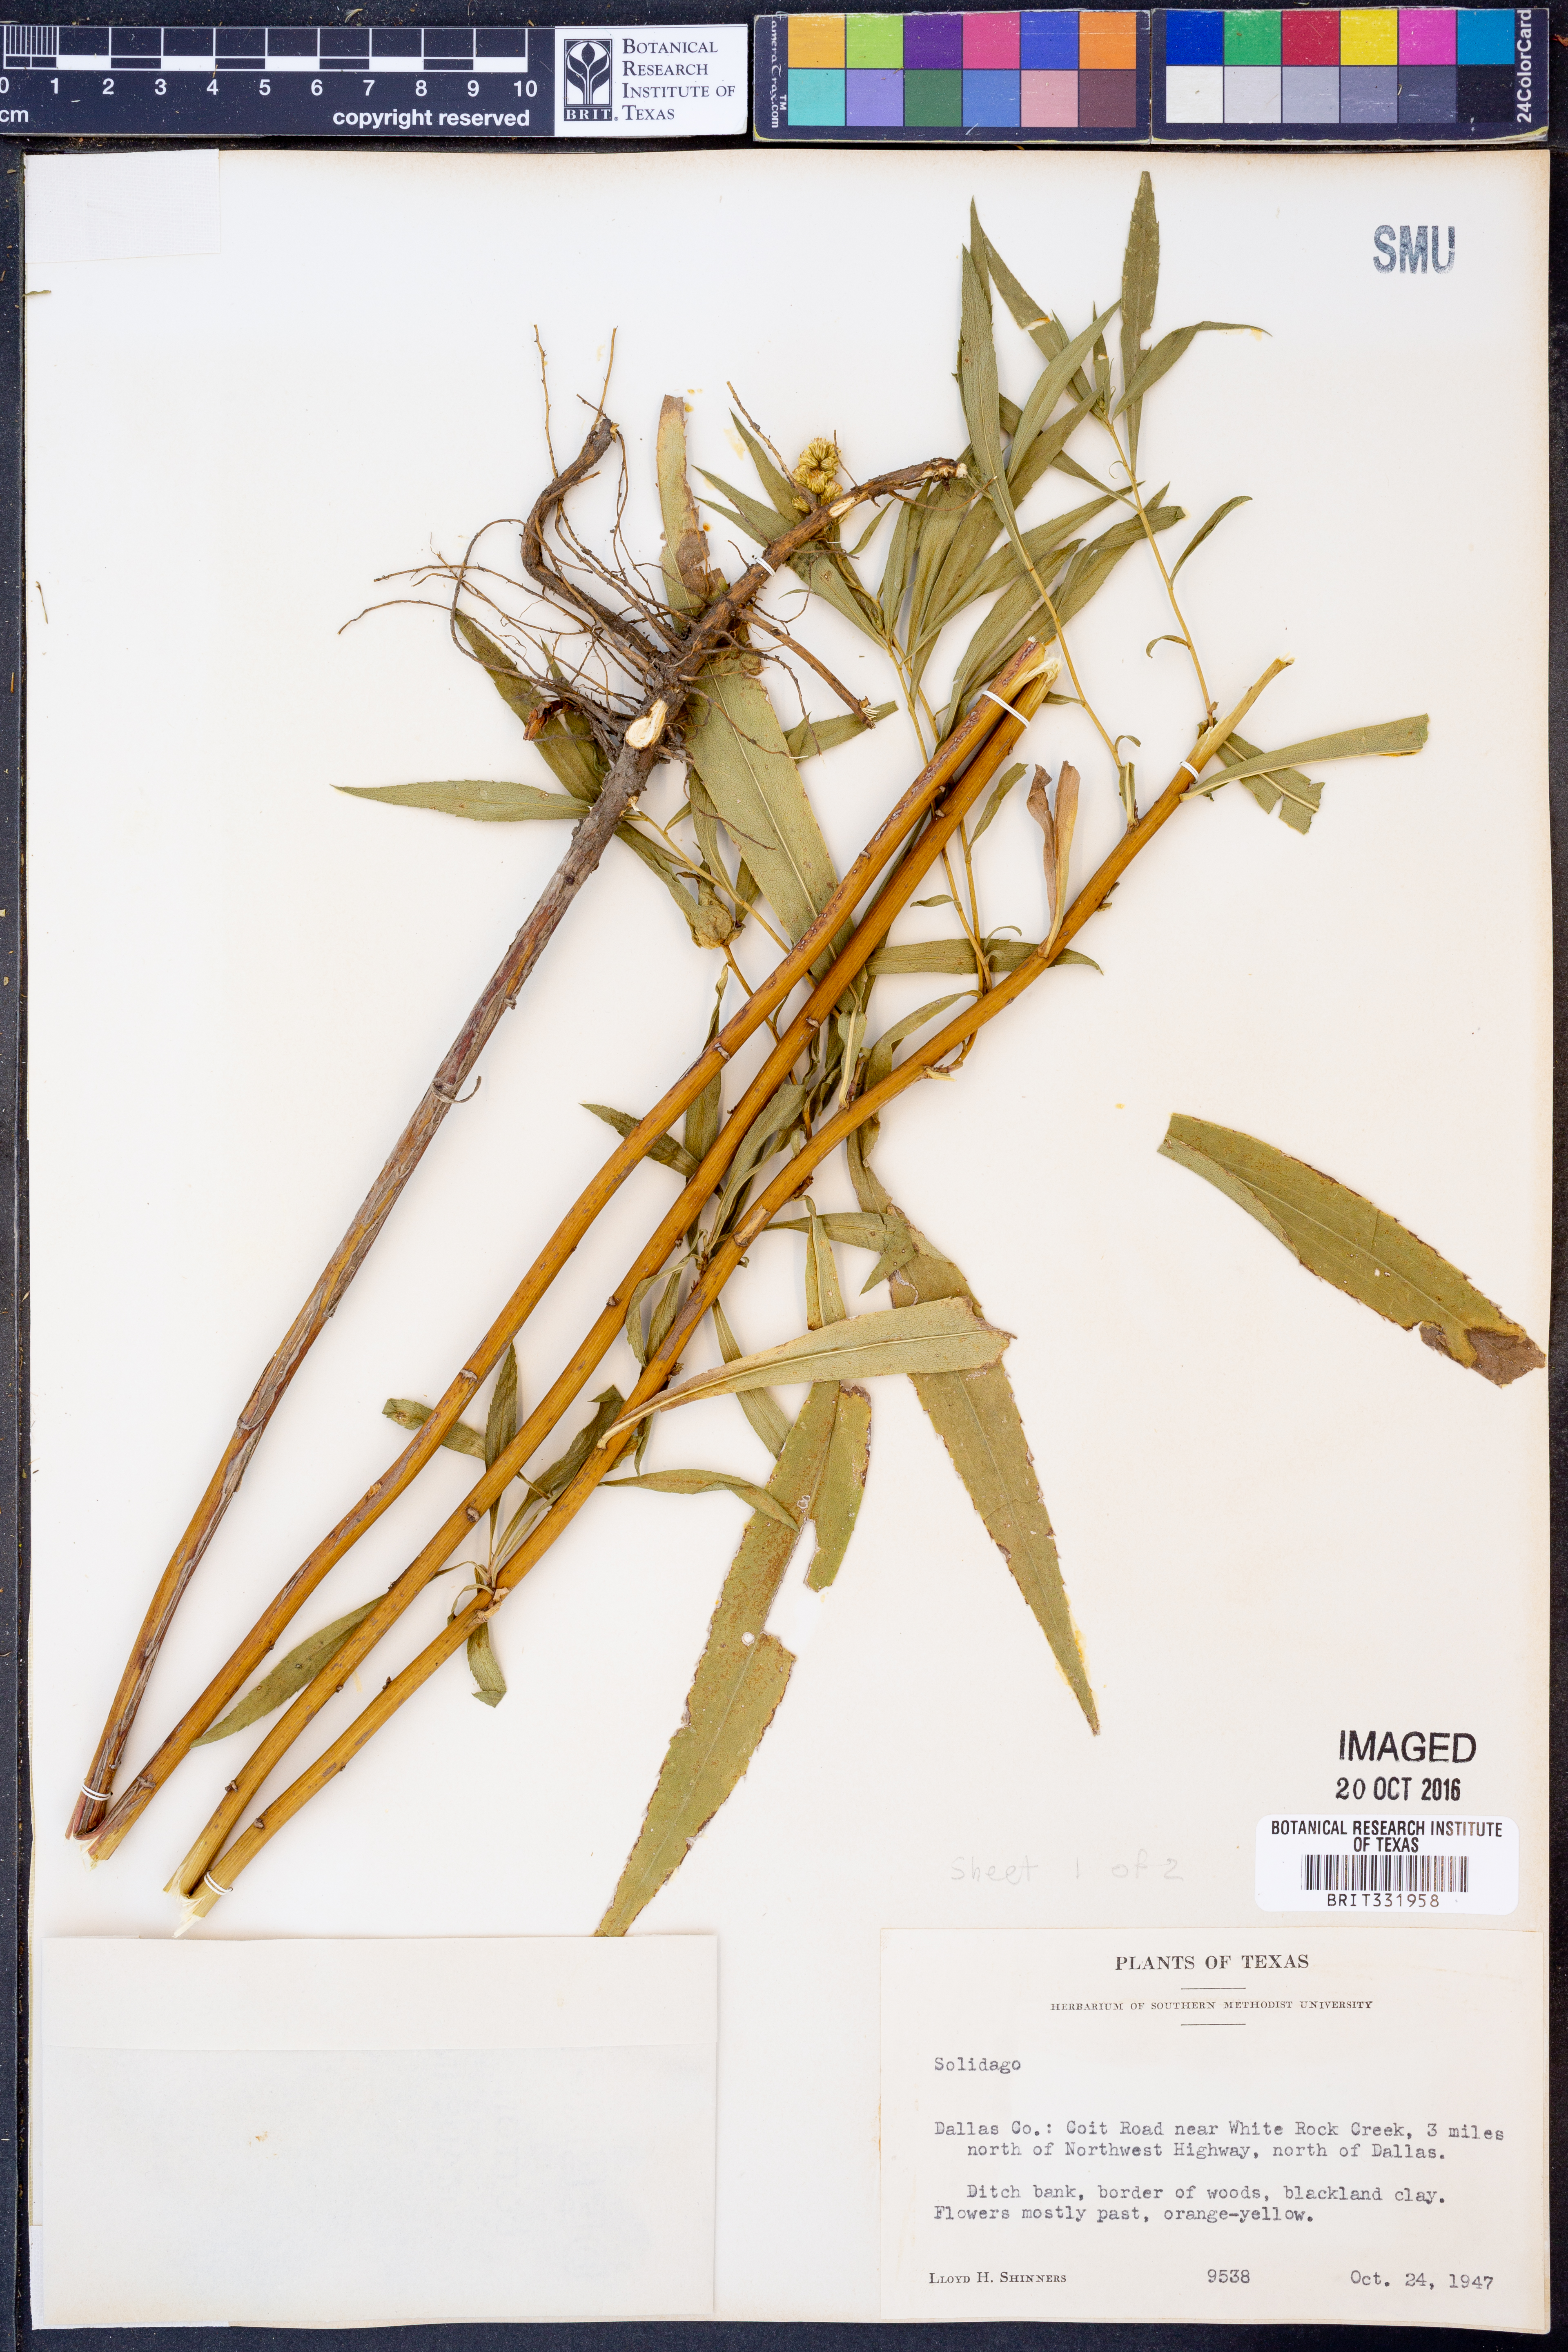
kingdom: Plantae
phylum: Tracheophyta
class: Magnoliopsida
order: Asterales
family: Asteraceae
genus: Solidago
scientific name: Solidago gigantea
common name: Giant goldenrod
